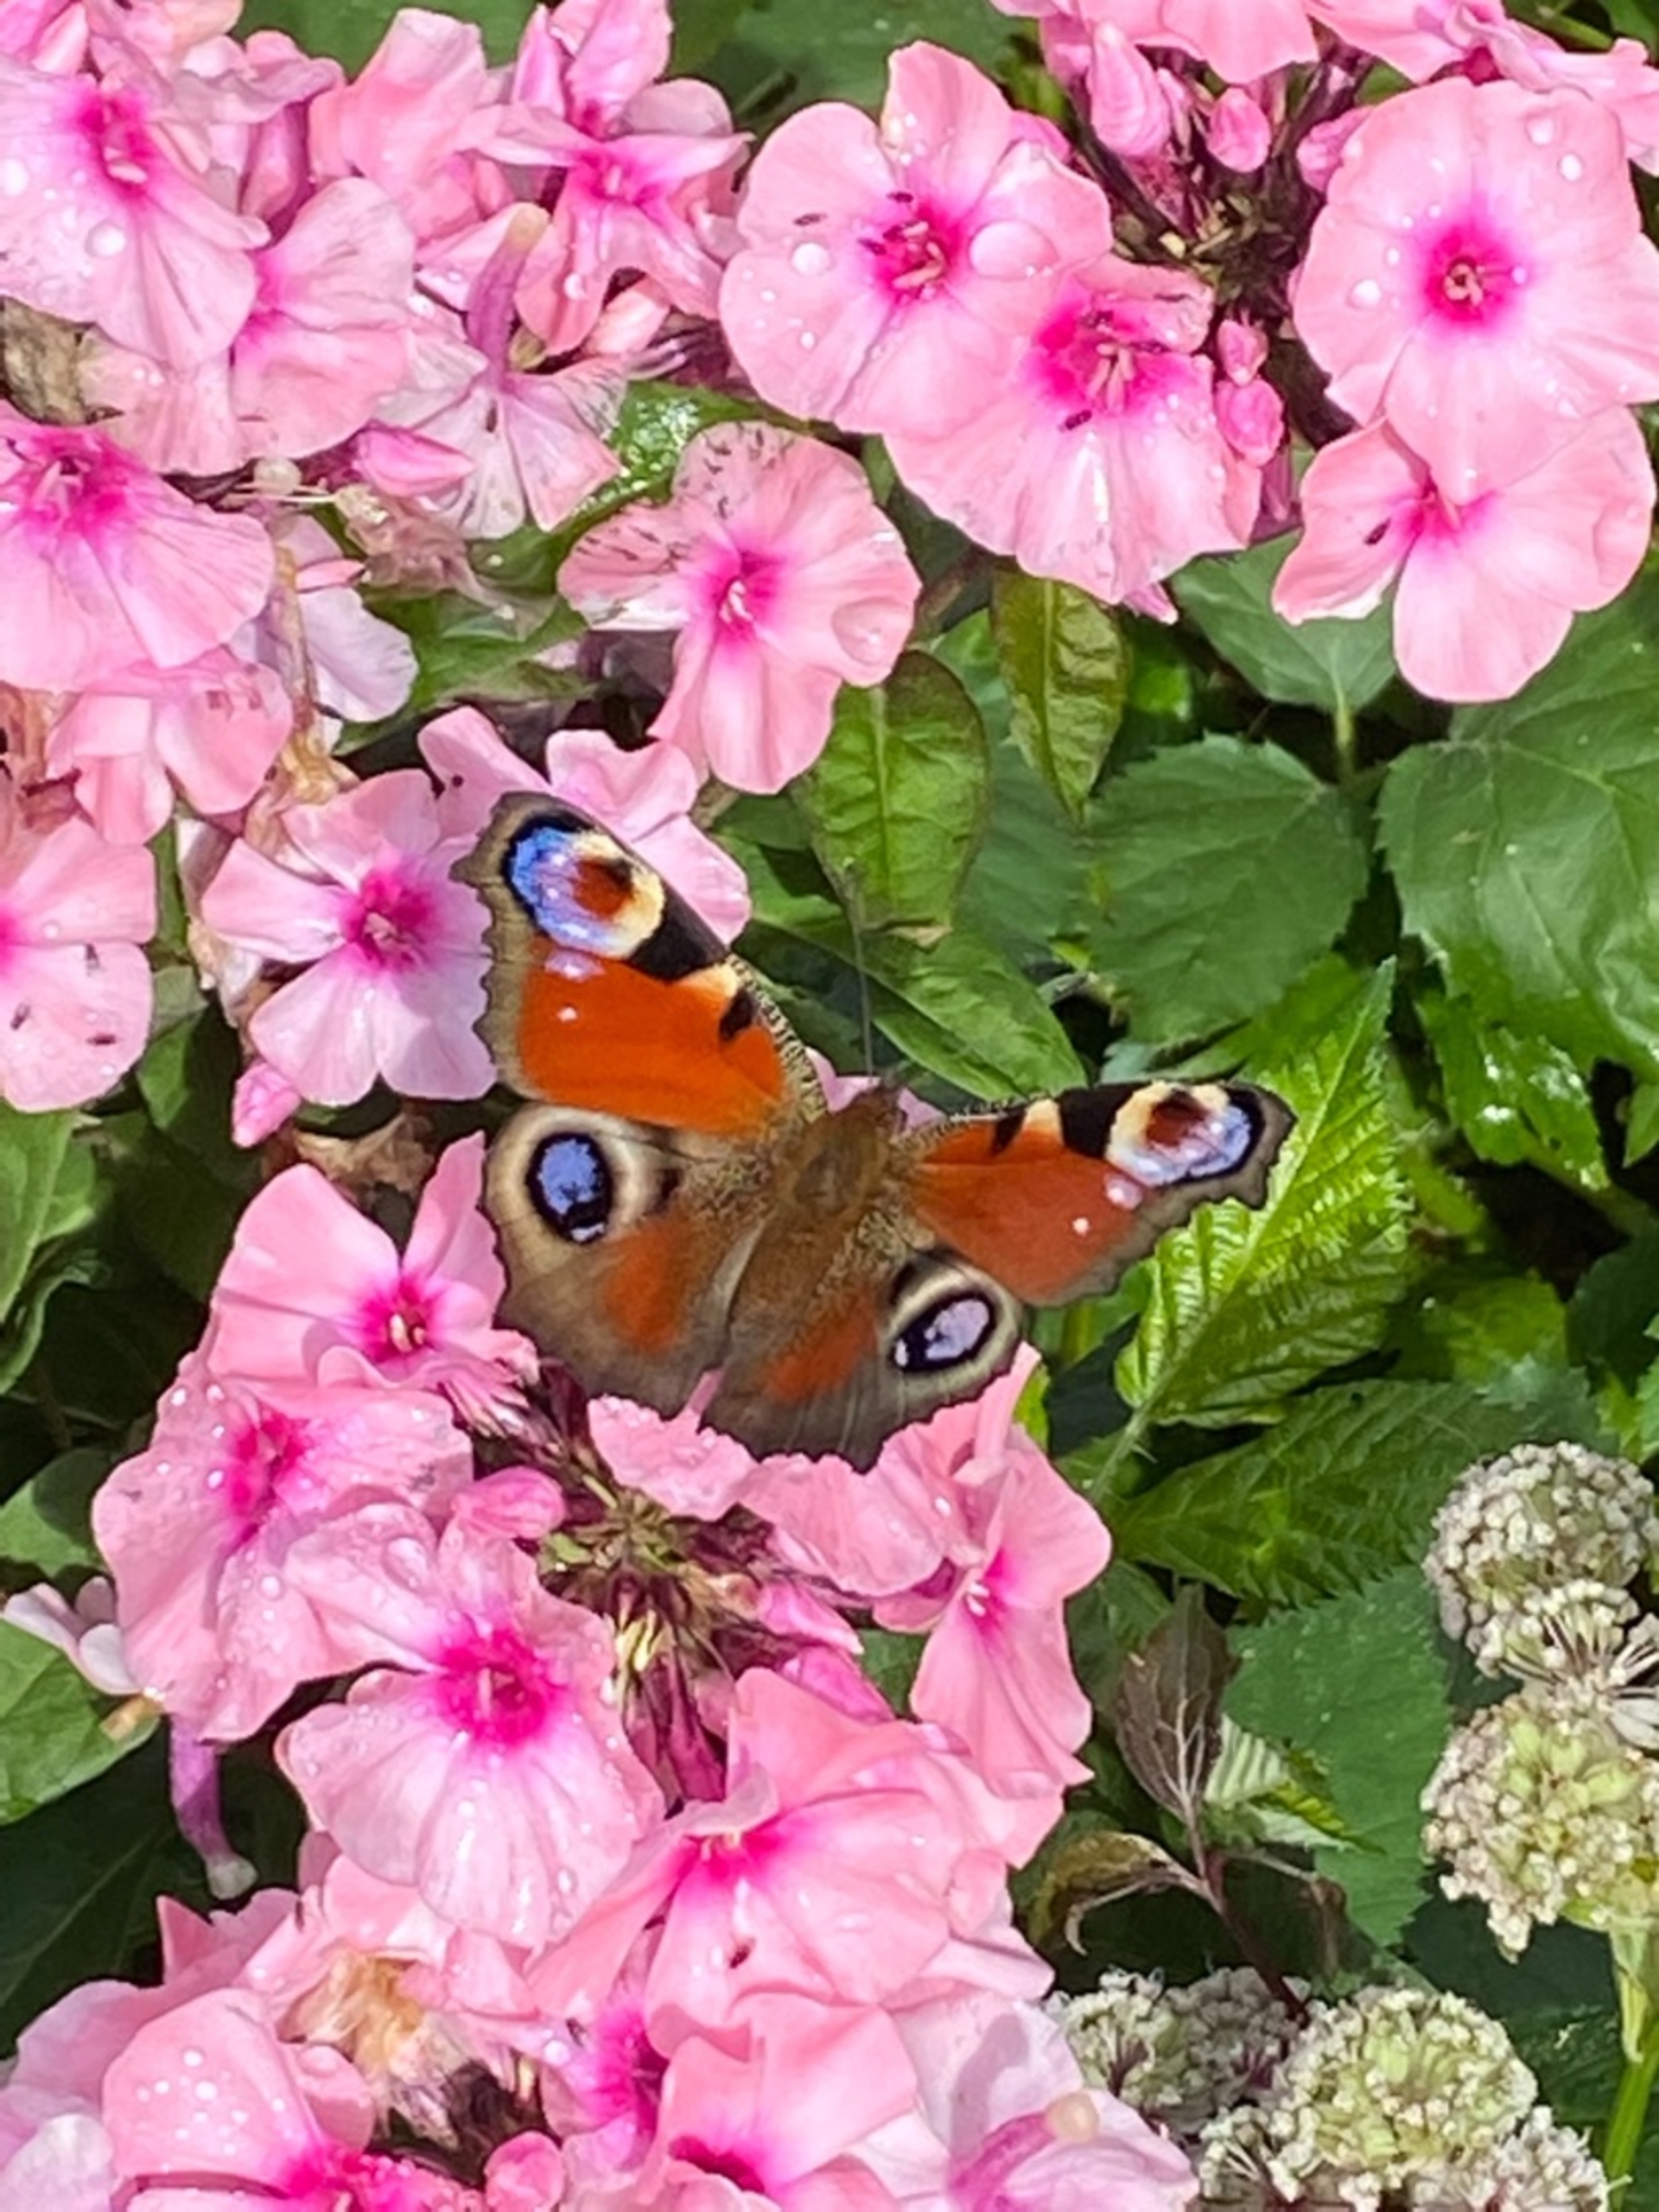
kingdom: Animalia
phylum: Arthropoda
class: Insecta
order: Lepidoptera
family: Nymphalidae
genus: Aglais
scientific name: Aglais io
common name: Dagpåfugleøje
